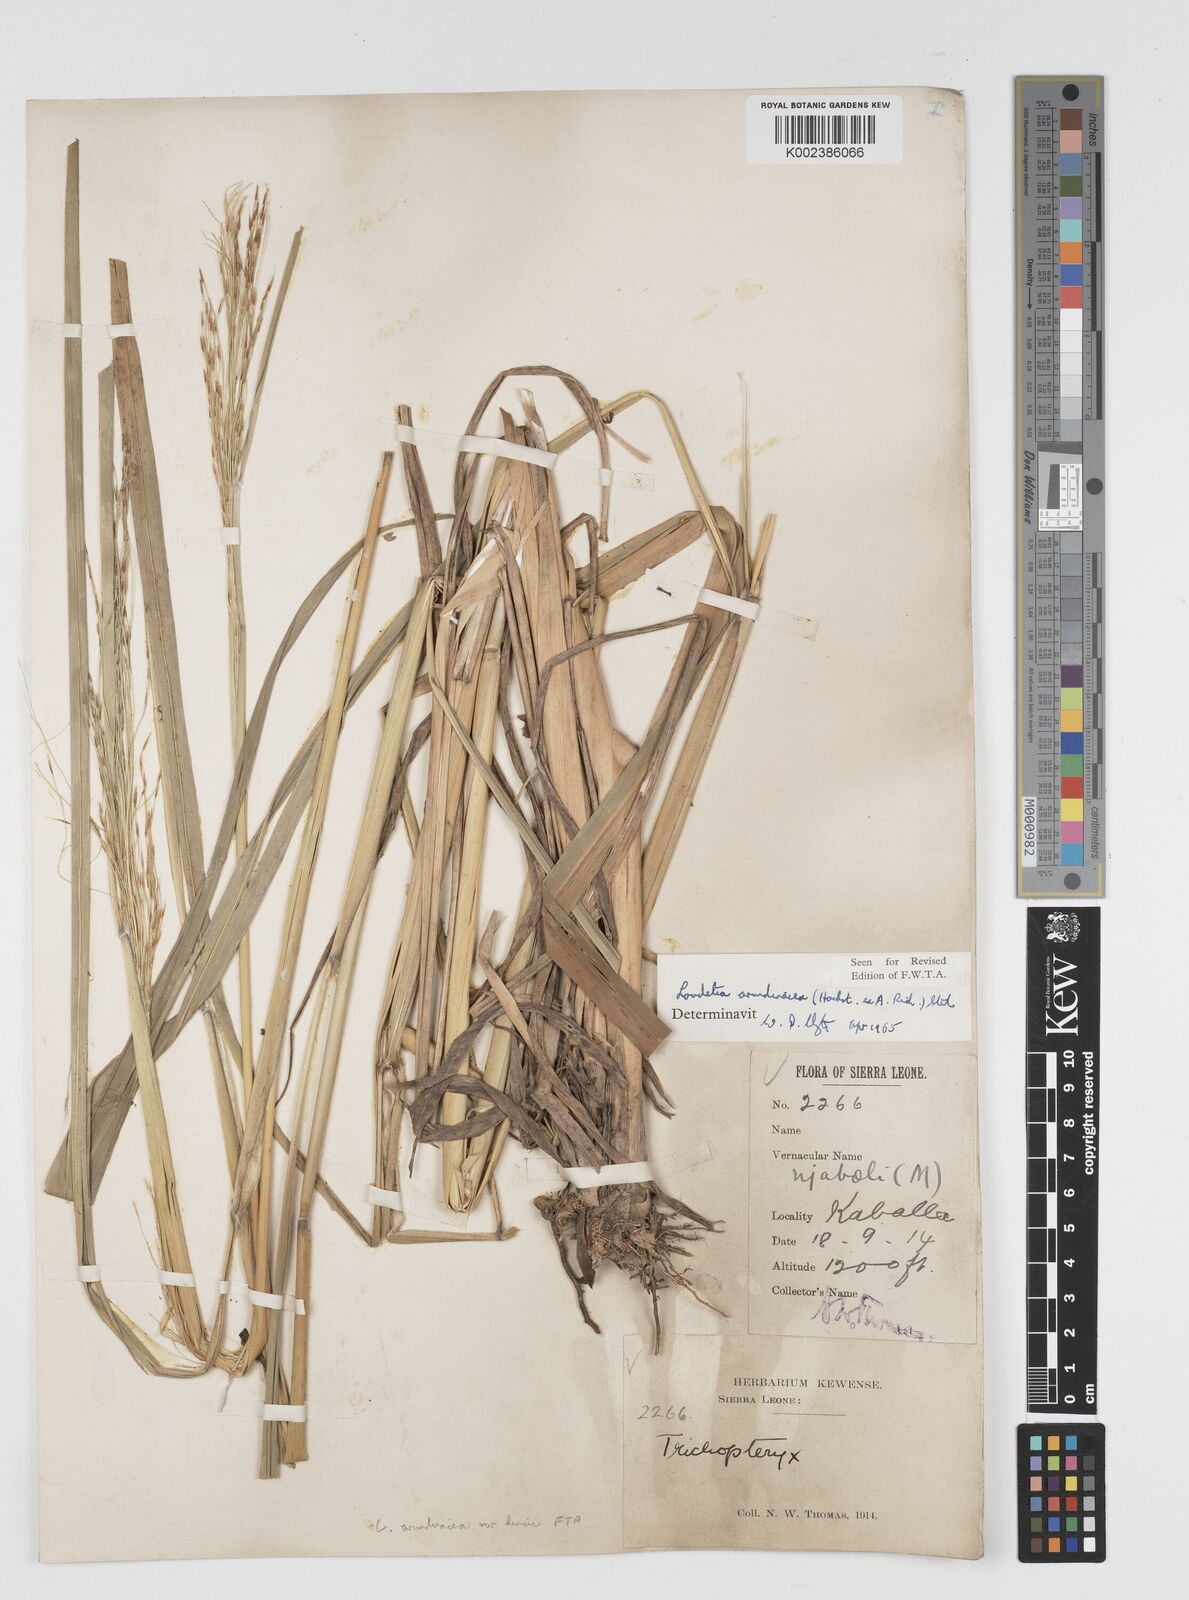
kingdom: Plantae
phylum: Tracheophyta
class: Liliopsida
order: Poales
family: Poaceae
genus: Loudetia
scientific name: Loudetia arundinacea
